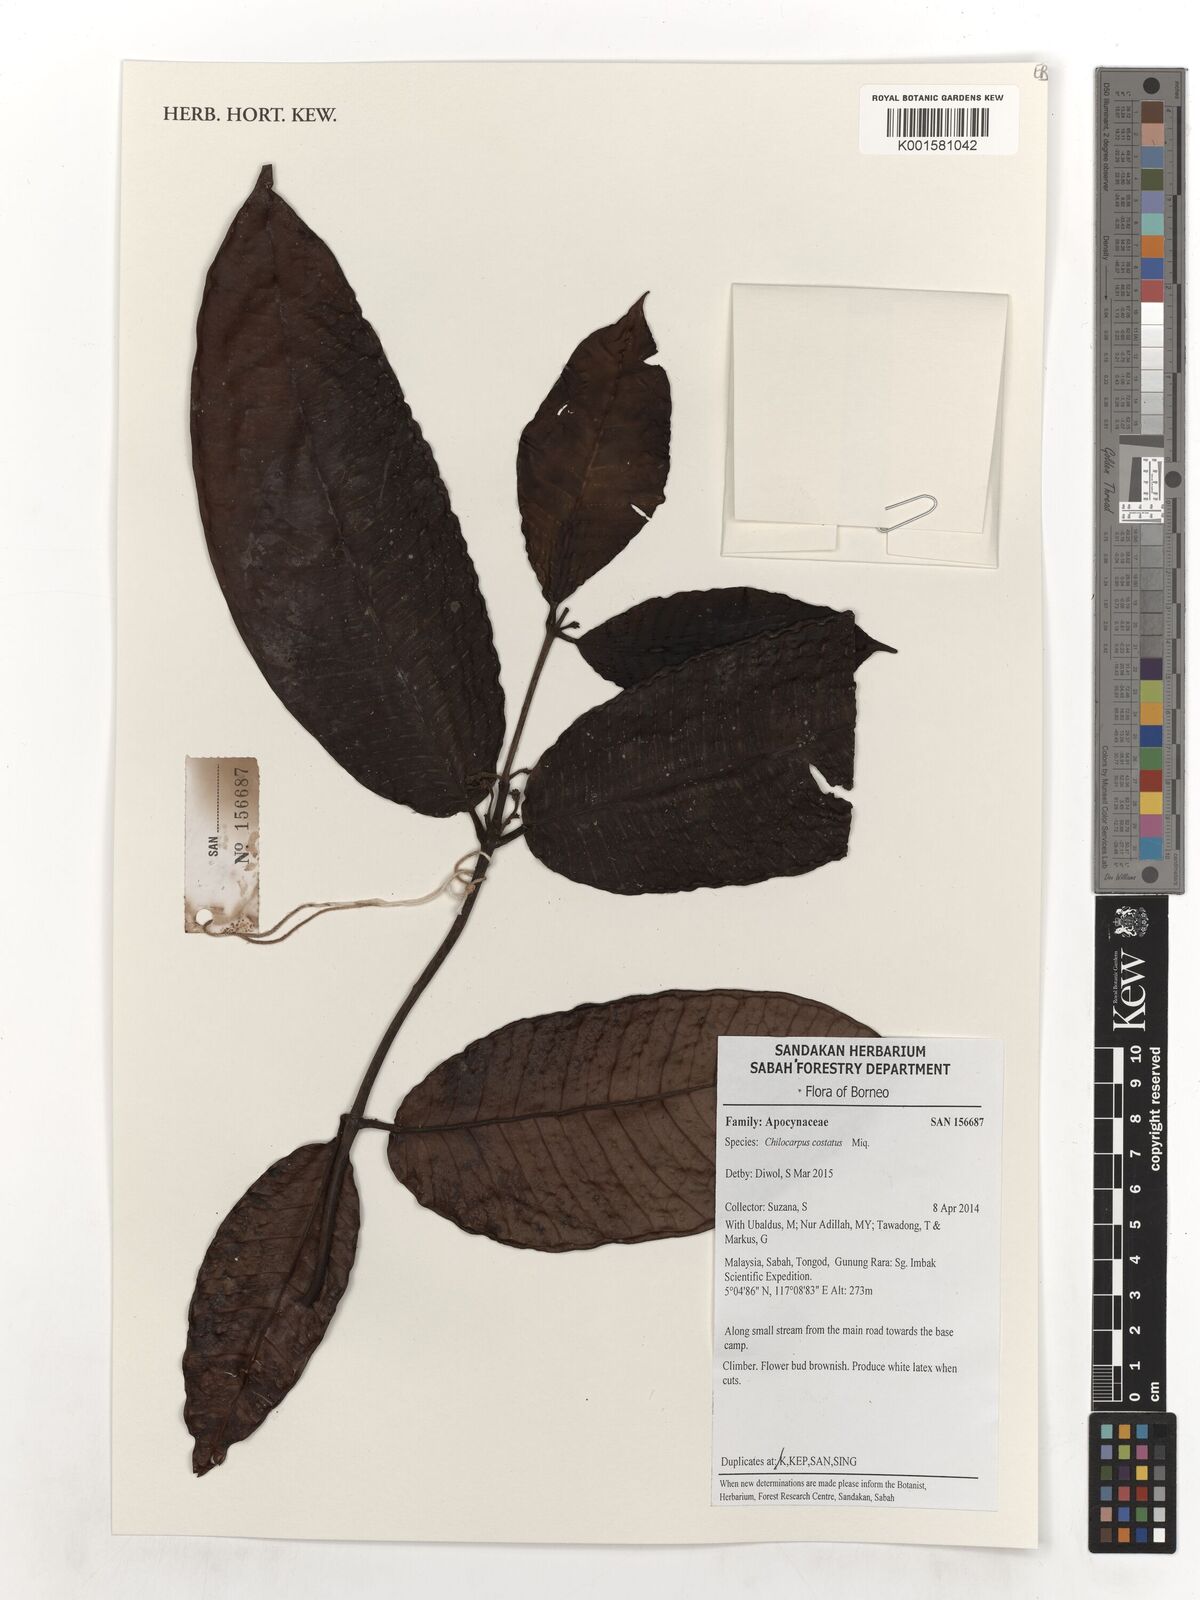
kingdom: Plantae
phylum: Tracheophyta
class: Magnoliopsida
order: Gentianales
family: Apocynaceae
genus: Chilocarpus
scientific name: Chilocarpus costatus
